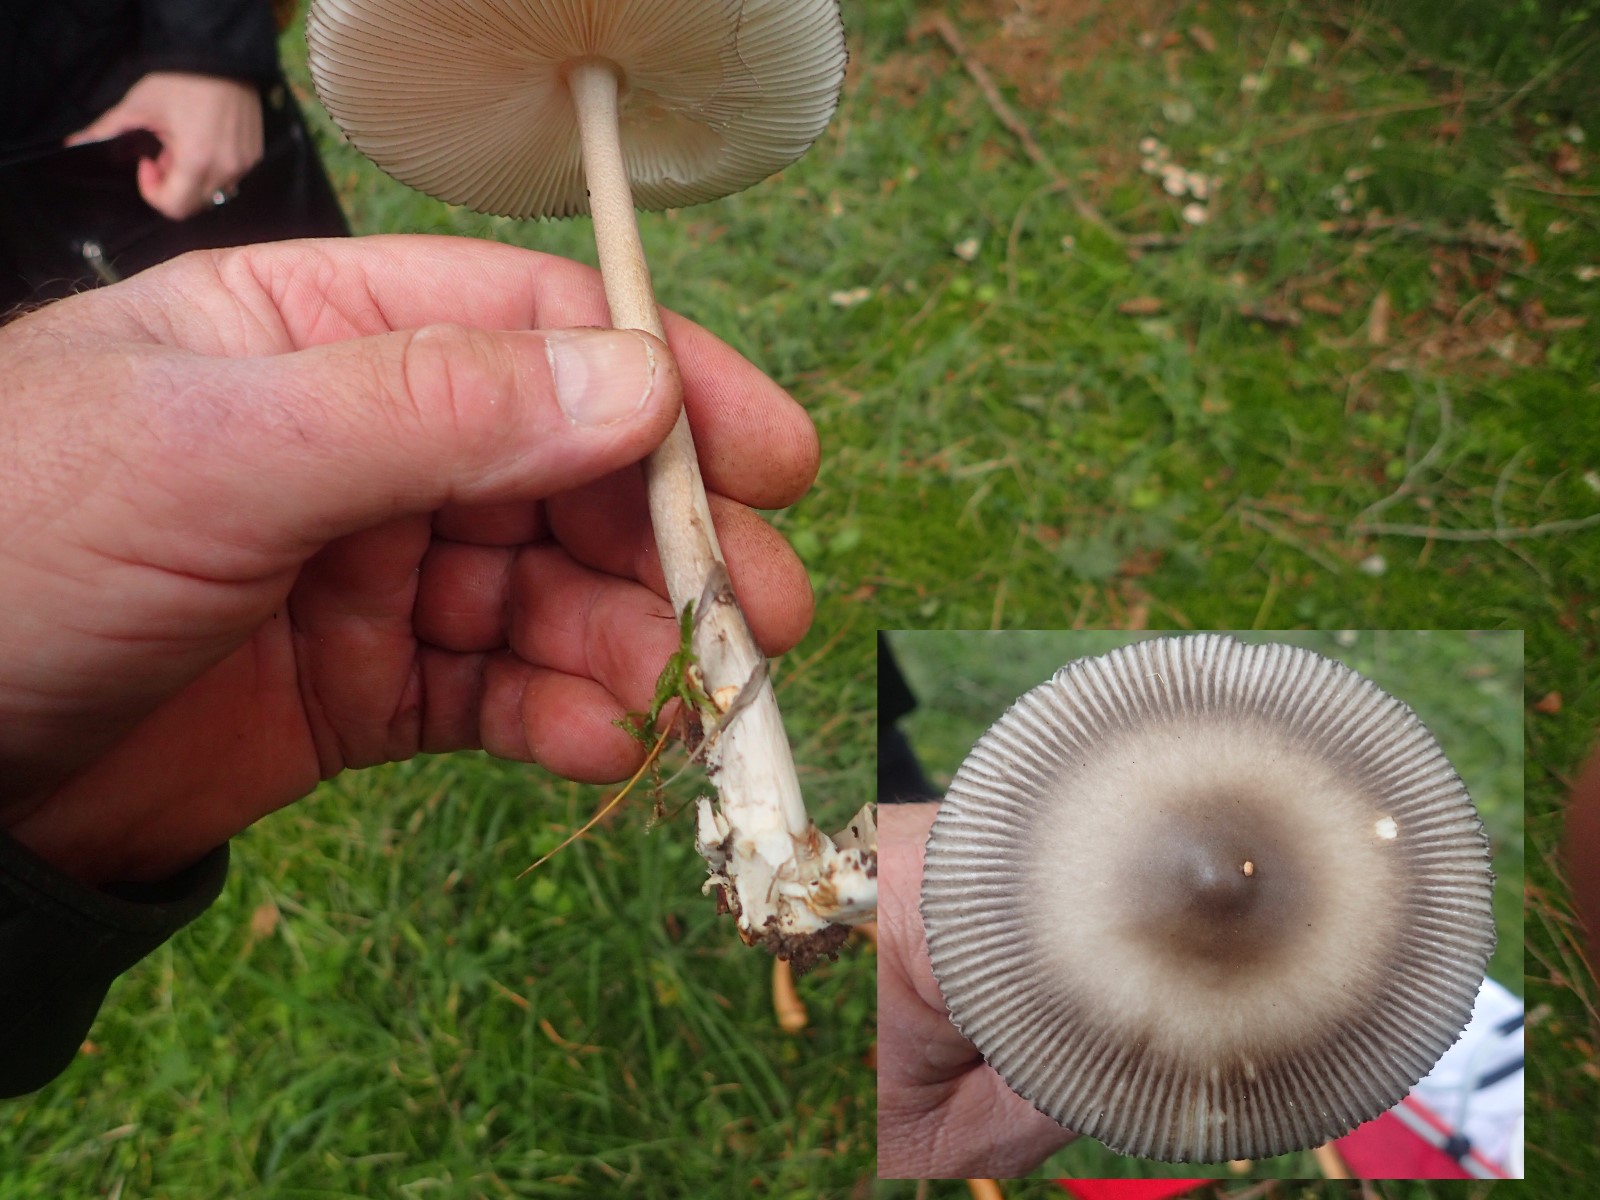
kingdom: Fungi
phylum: Basidiomycota
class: Agaricomycetes
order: Agaricales
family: Amanitaceae
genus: Amanita
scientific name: Amanita
